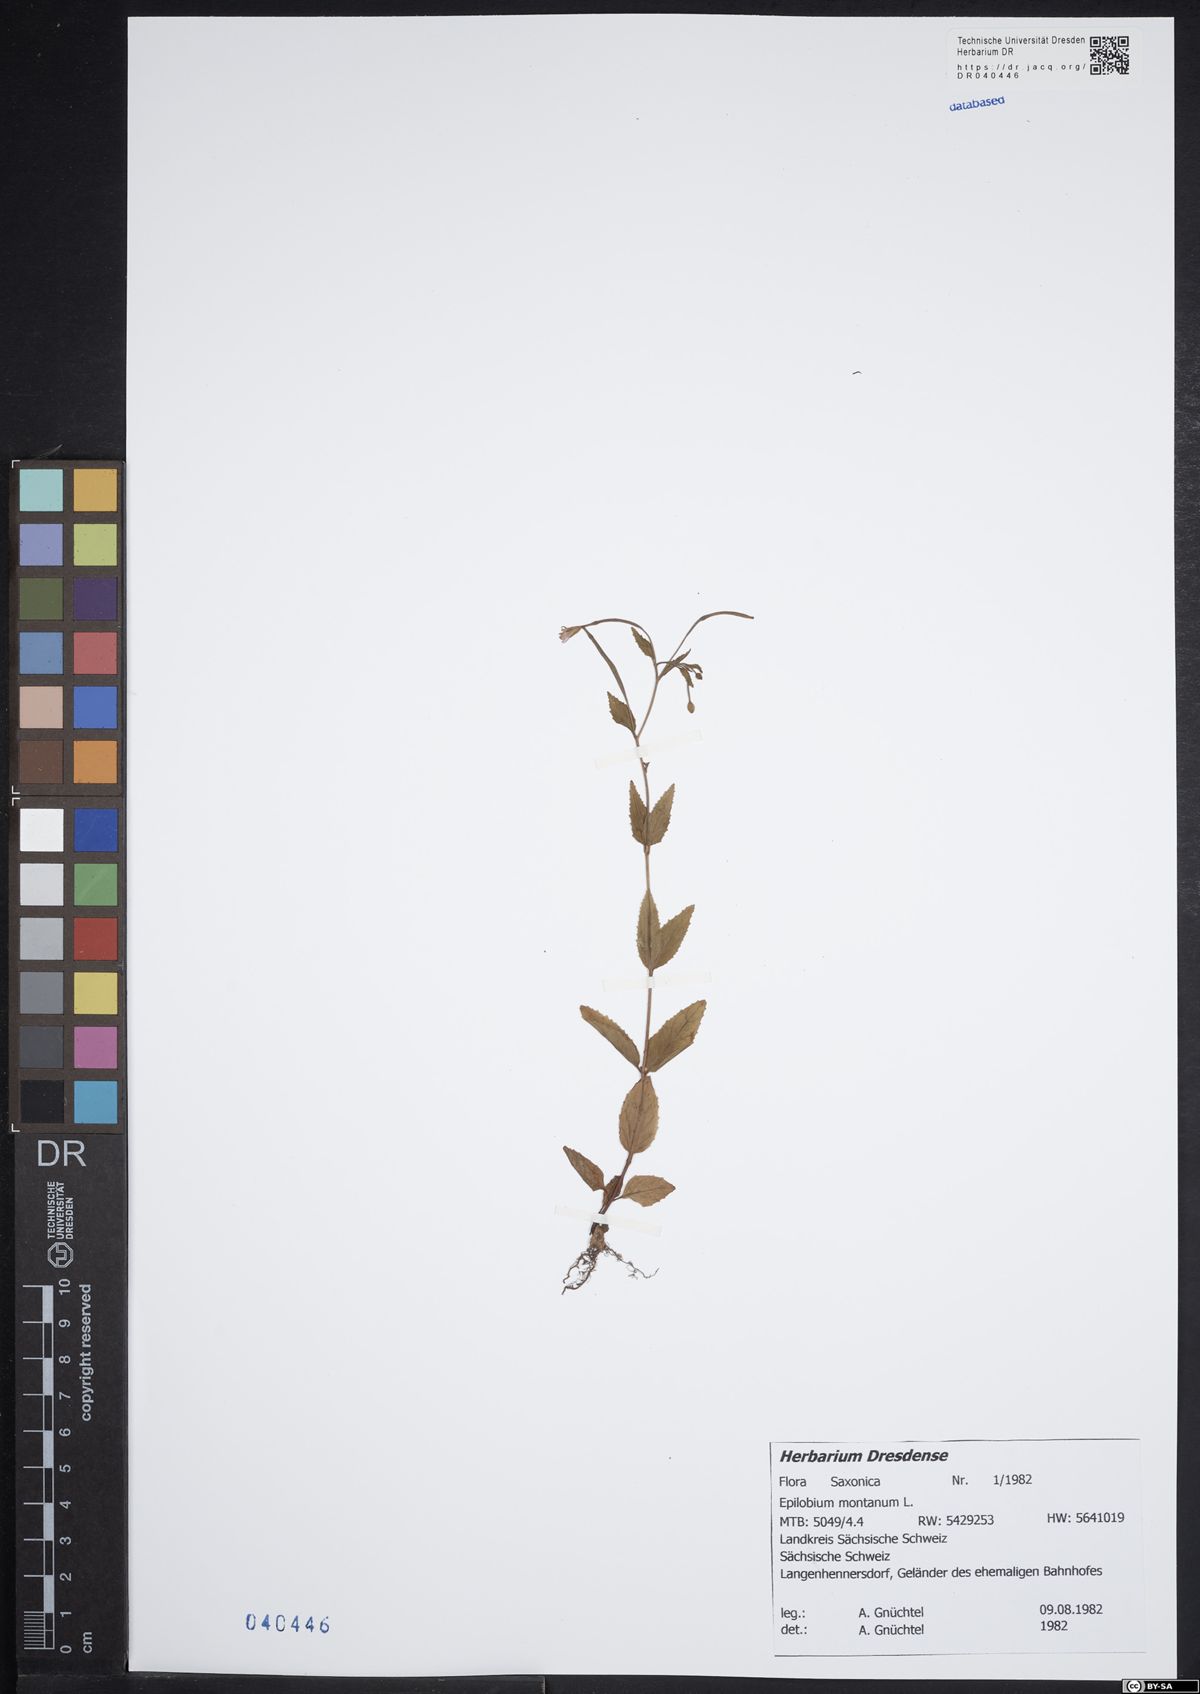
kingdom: Plantae
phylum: Tracheophyta
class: Magnoliopsida
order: Myrtales
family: Onagraceae
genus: Epilobium
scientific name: Epilobium montanum
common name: Broad-leaved willowherb
